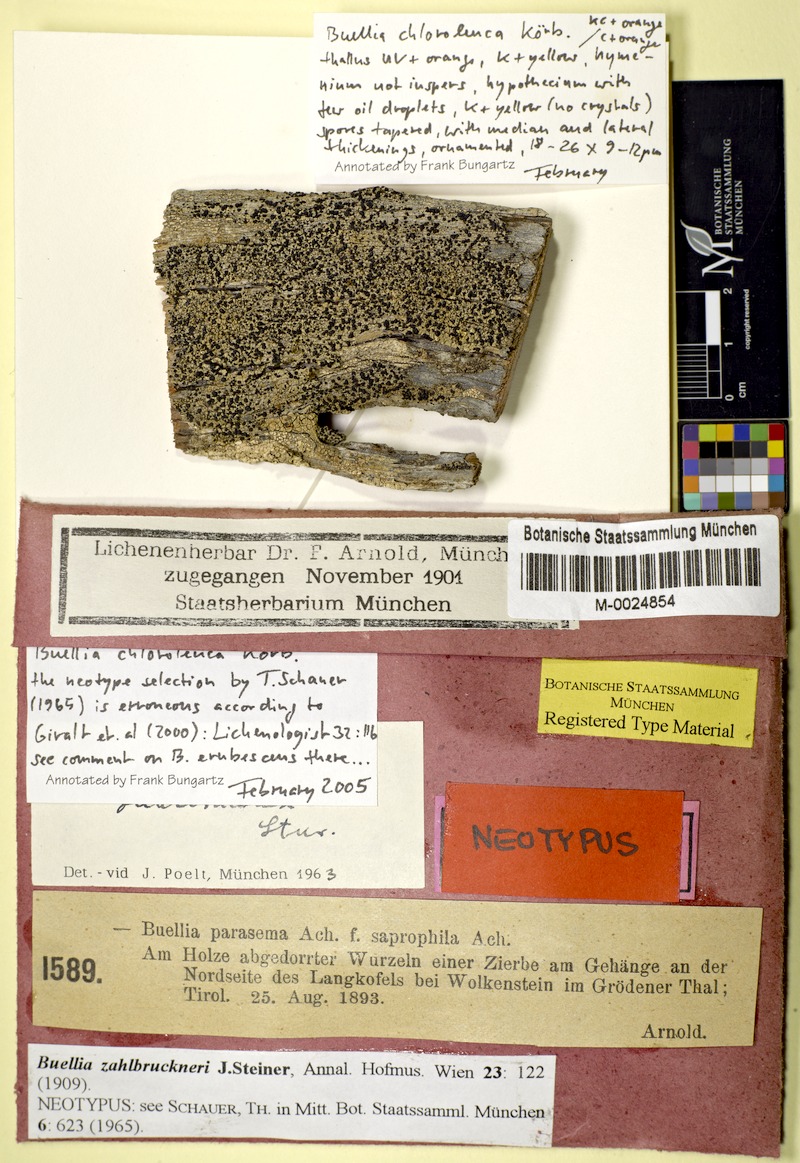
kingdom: Fungi
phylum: Ascomycota
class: Lecanoromycetes
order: Caliciales
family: Caliciaceae
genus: Tetramelas
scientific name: Tetramelas chloroleucus
